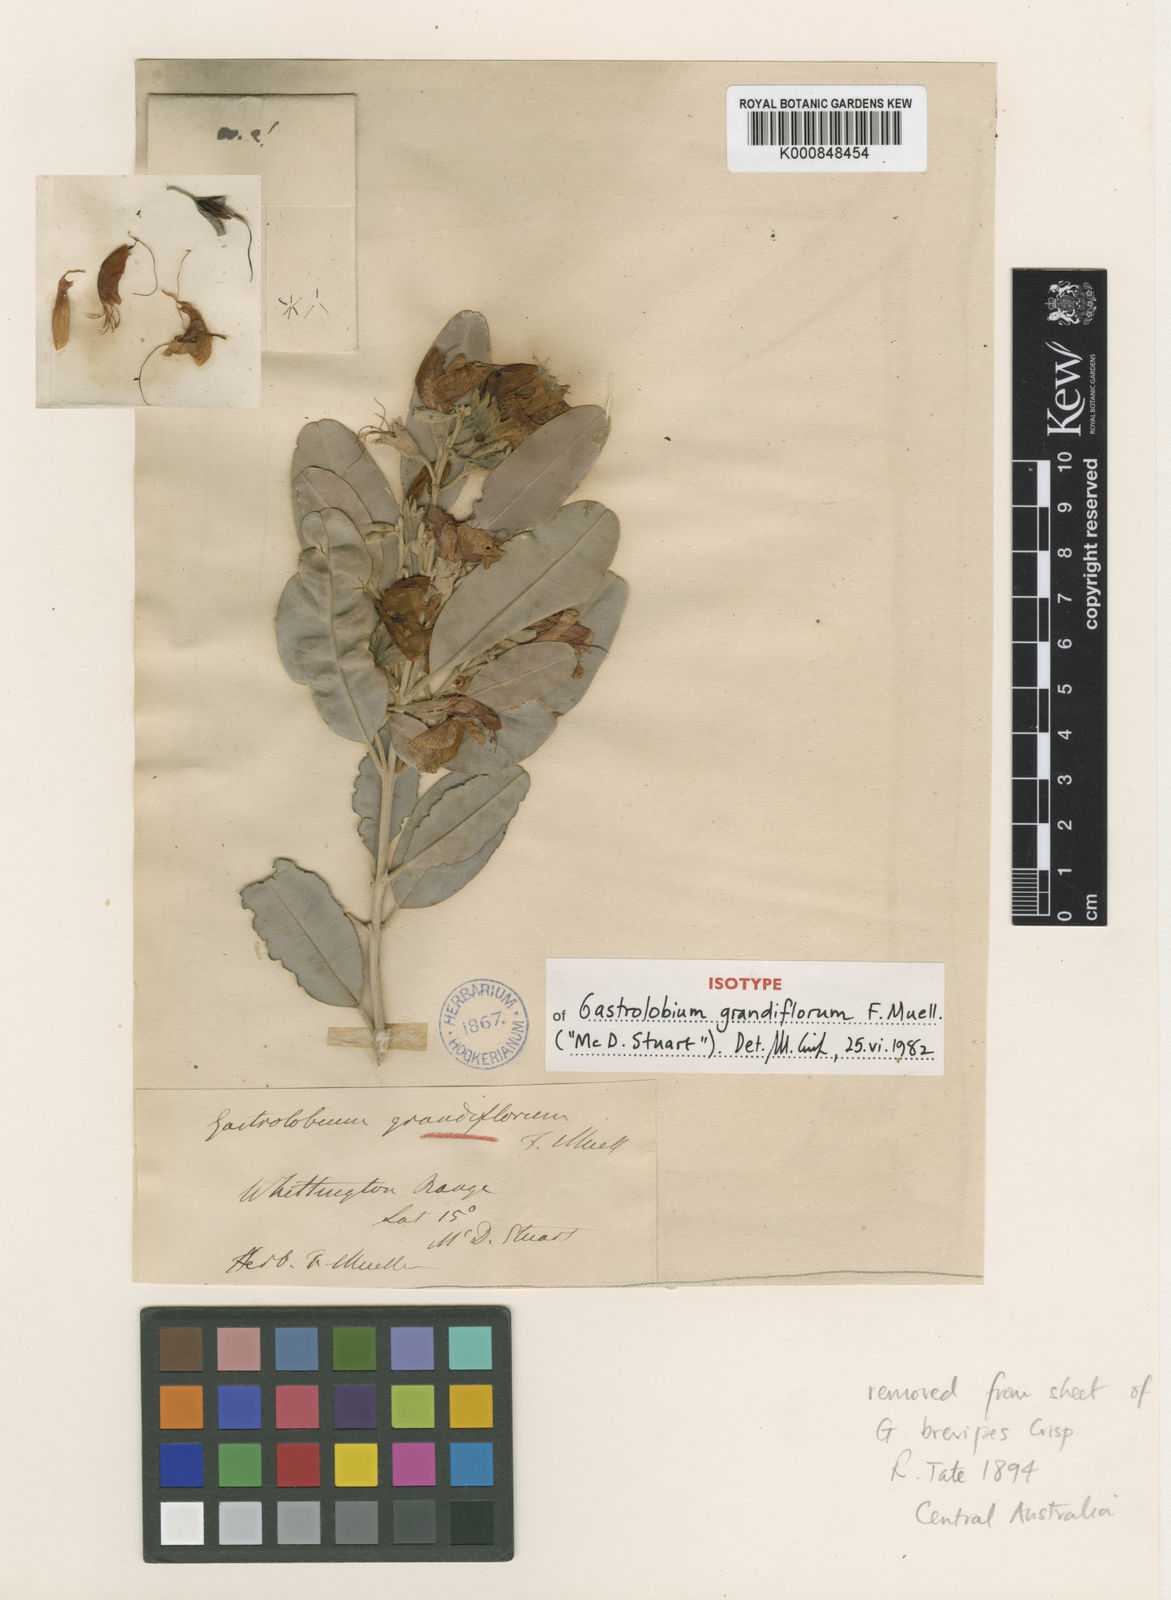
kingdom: Plantae
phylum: Tracheophyta
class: Magnoliopsida
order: Fabales
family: Fabaceae
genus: Gastrolobium
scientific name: Gastrolobium grandiflorum
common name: Australian poisonbush
